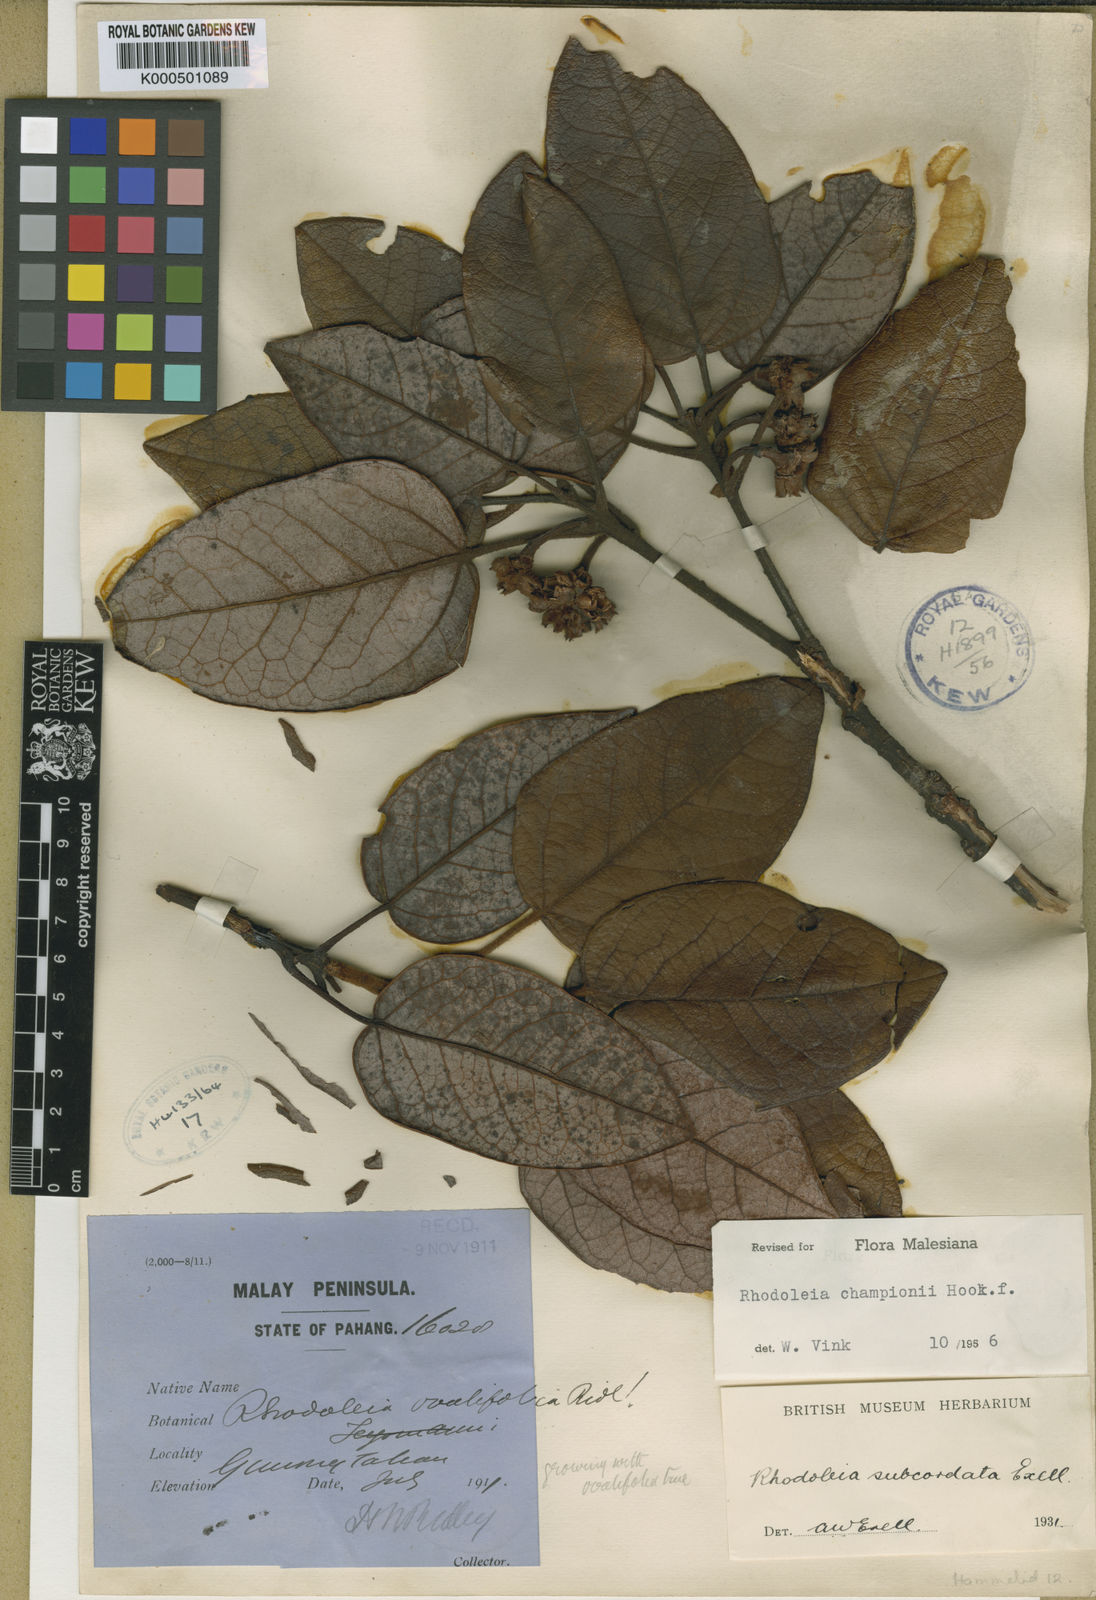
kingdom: Plantae
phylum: Tracheophyta
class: Magnoliopsida
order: Saxifragales
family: Hamamelidaceae
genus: Rhodoleia
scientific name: Rhodoleia championii
